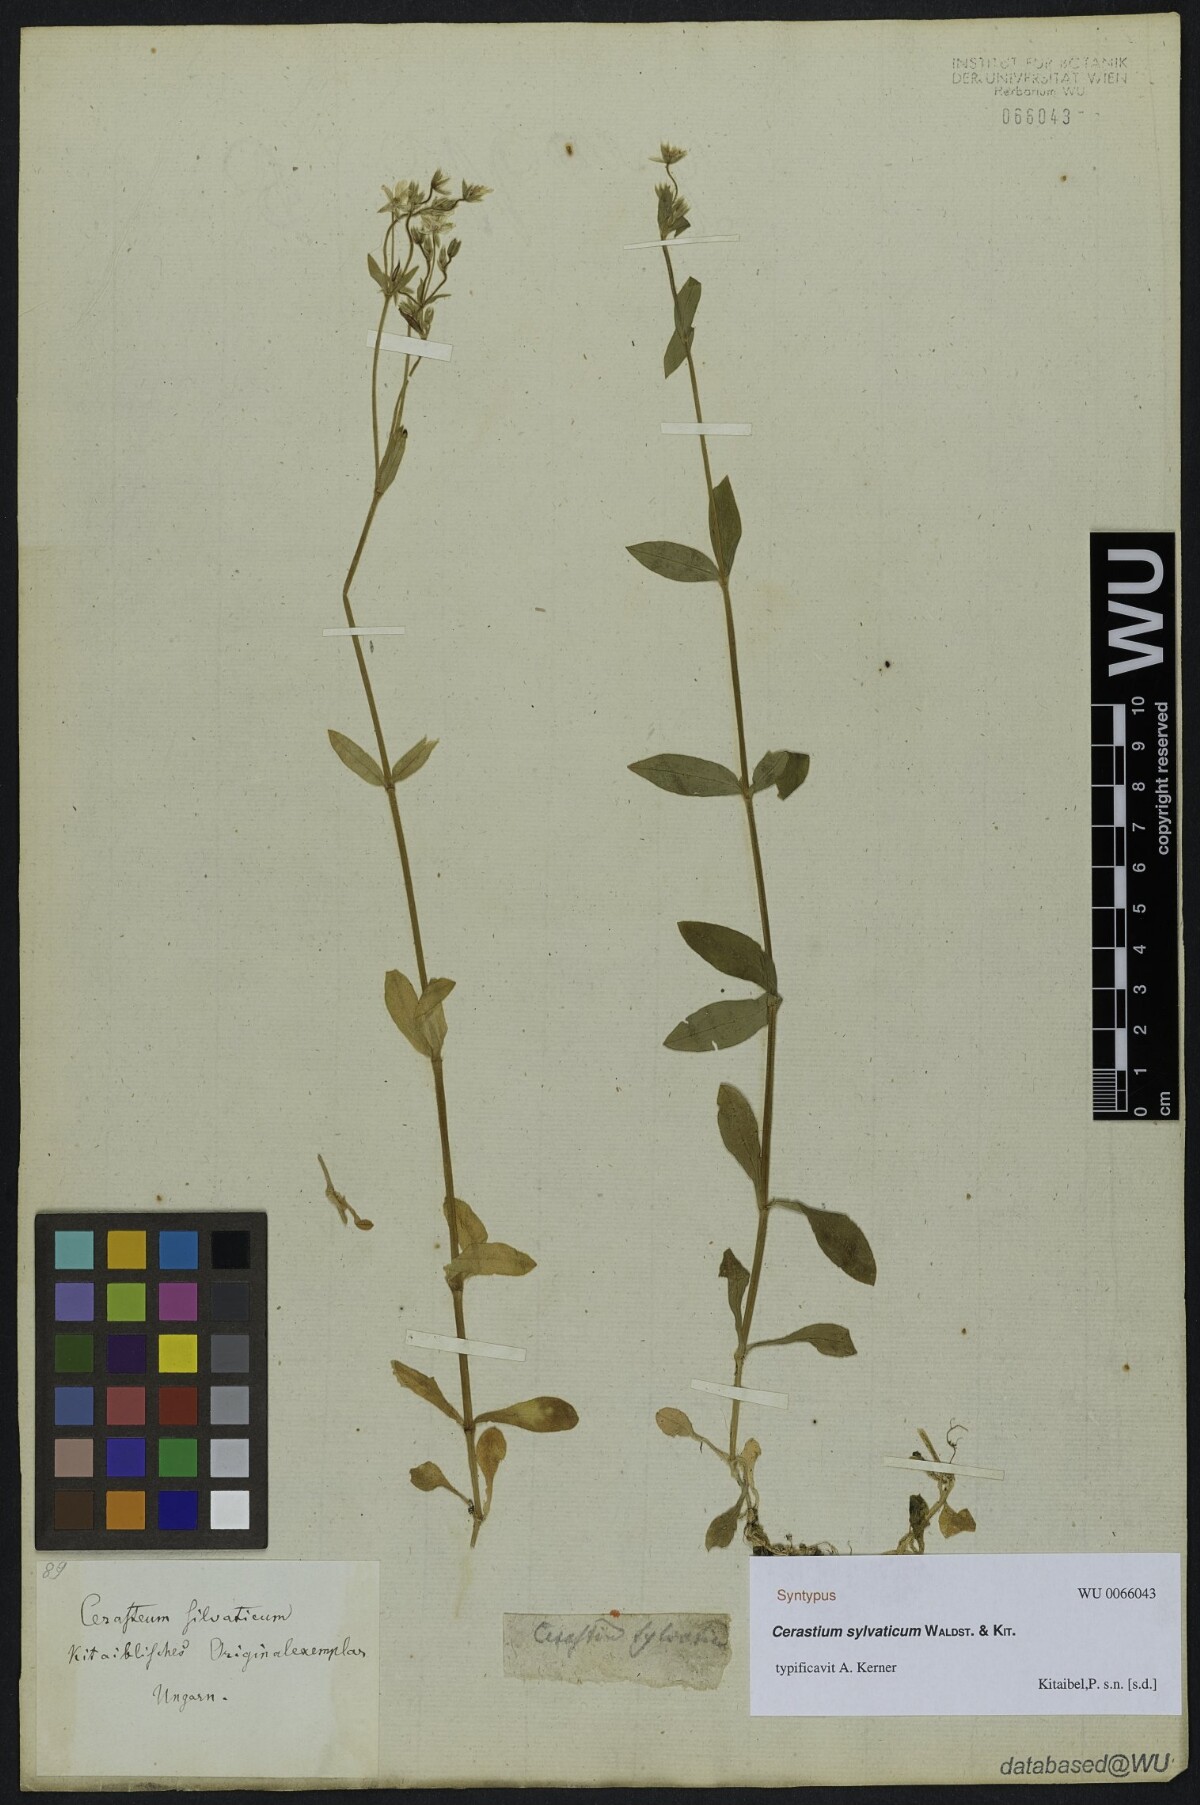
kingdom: Plantae
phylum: Tracheophyta
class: Magnoliopsida
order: Caryophyllales
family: Caryophyllaceae
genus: Cerastium
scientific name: Cerastium sylvaticum
